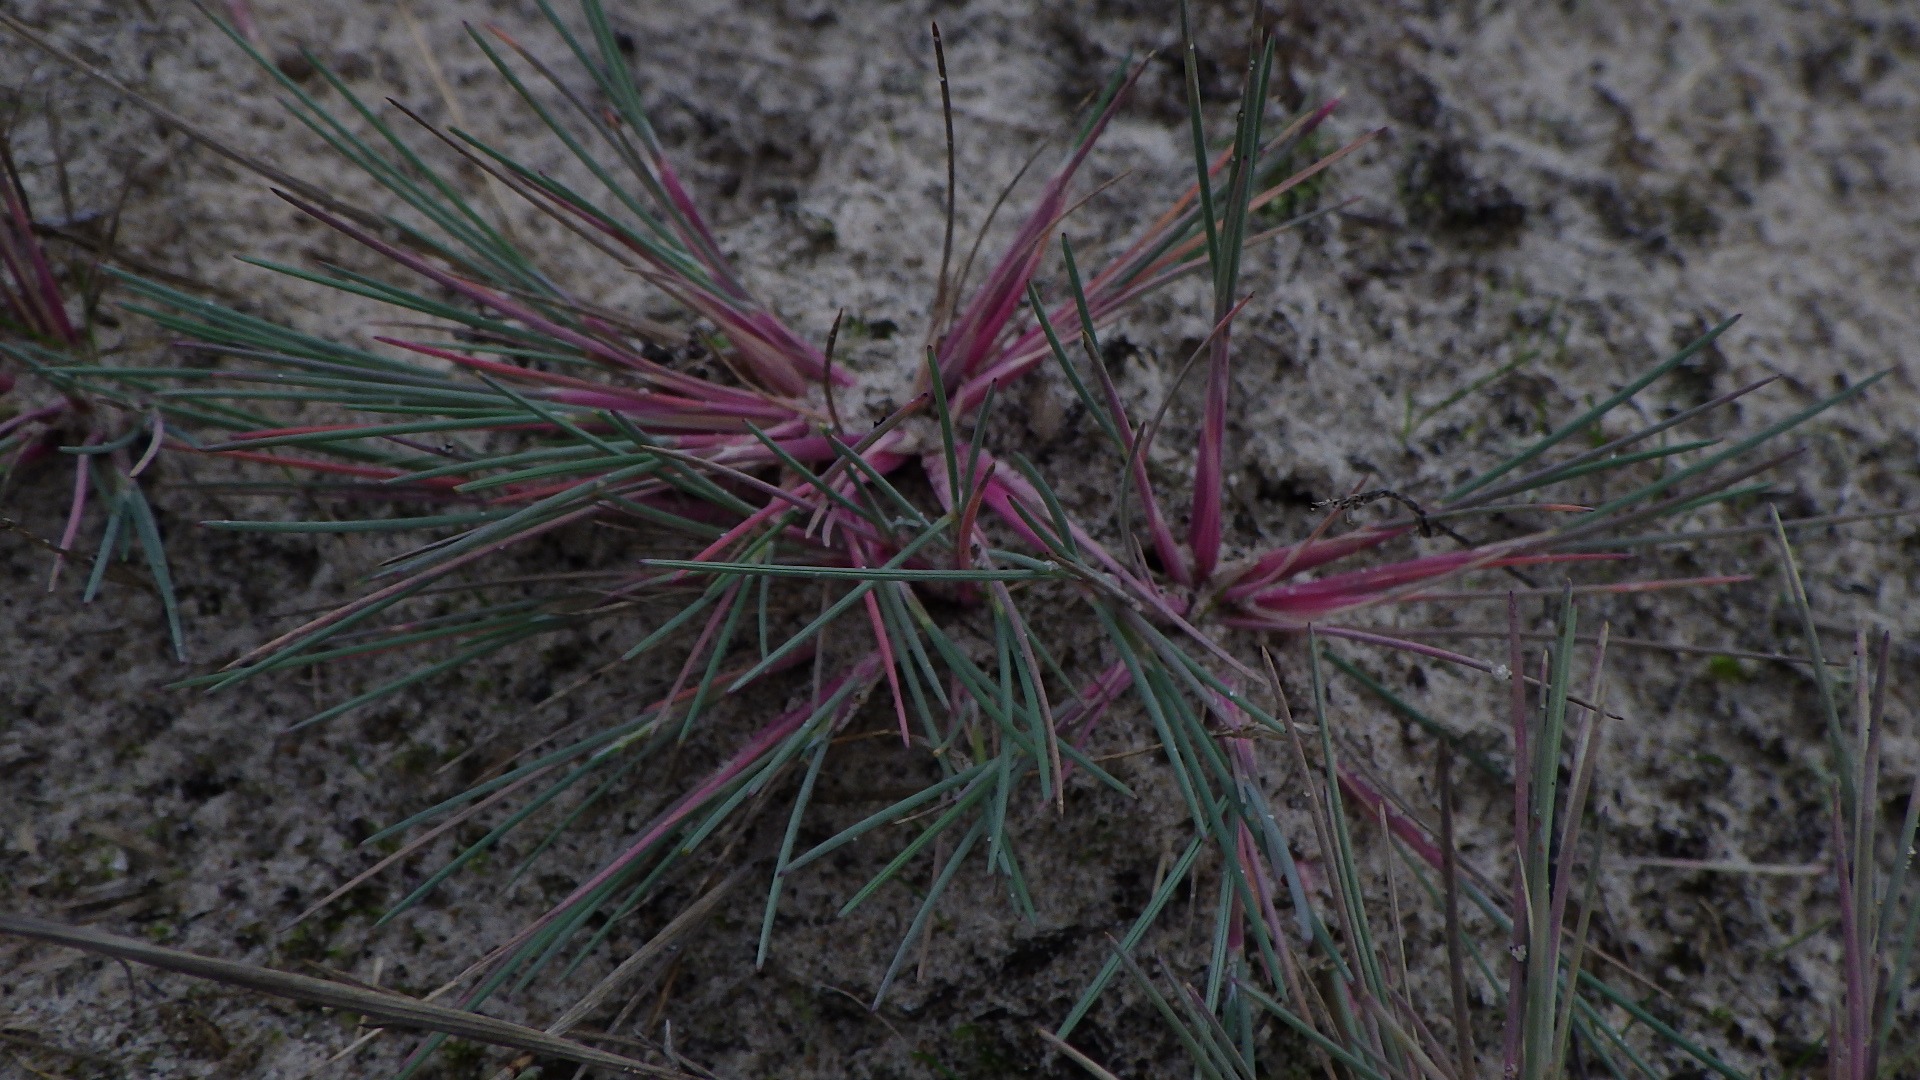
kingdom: Plantae
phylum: Tracheophyta
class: Liliopsida
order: Poales
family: Poaceae
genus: Corynephorus
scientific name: Corynephorus canescens
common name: Sandskæg
